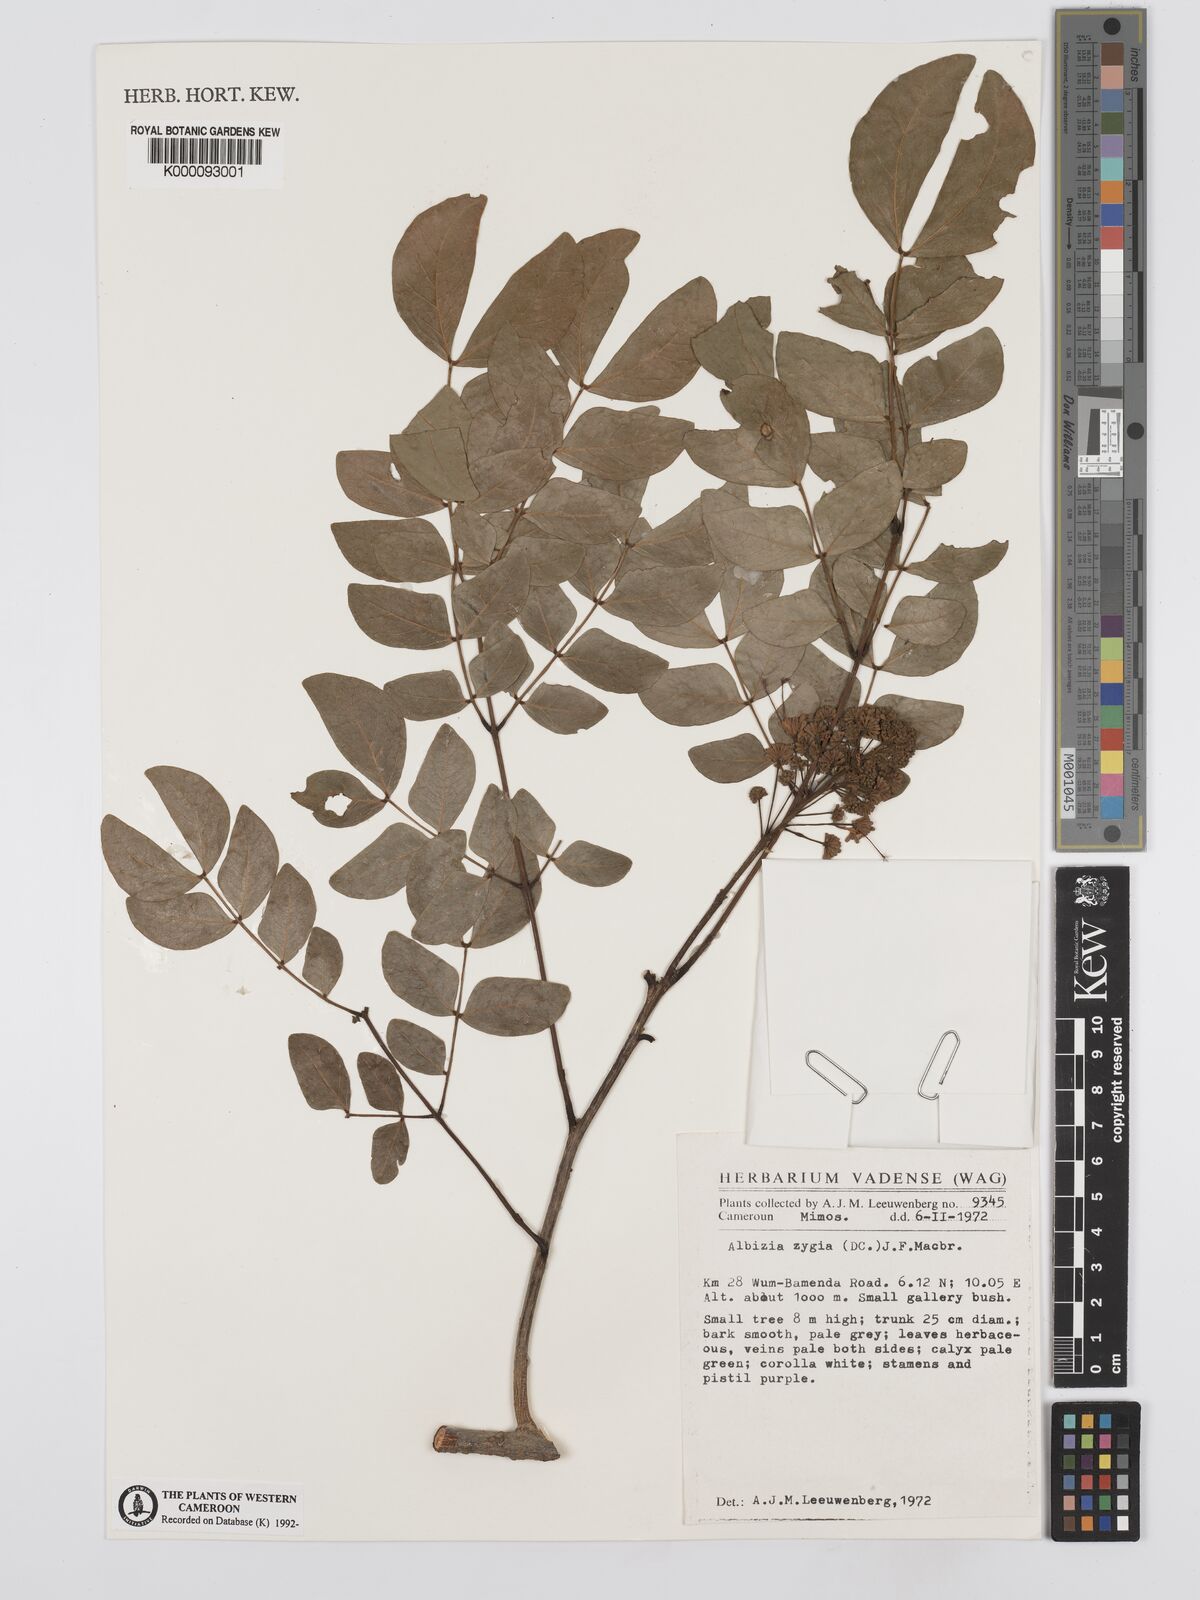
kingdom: Plantae
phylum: Tracheophyta
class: Magnoliopsida
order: Fabales
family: Fabaceae
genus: Albizia
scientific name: Albizia zygia
